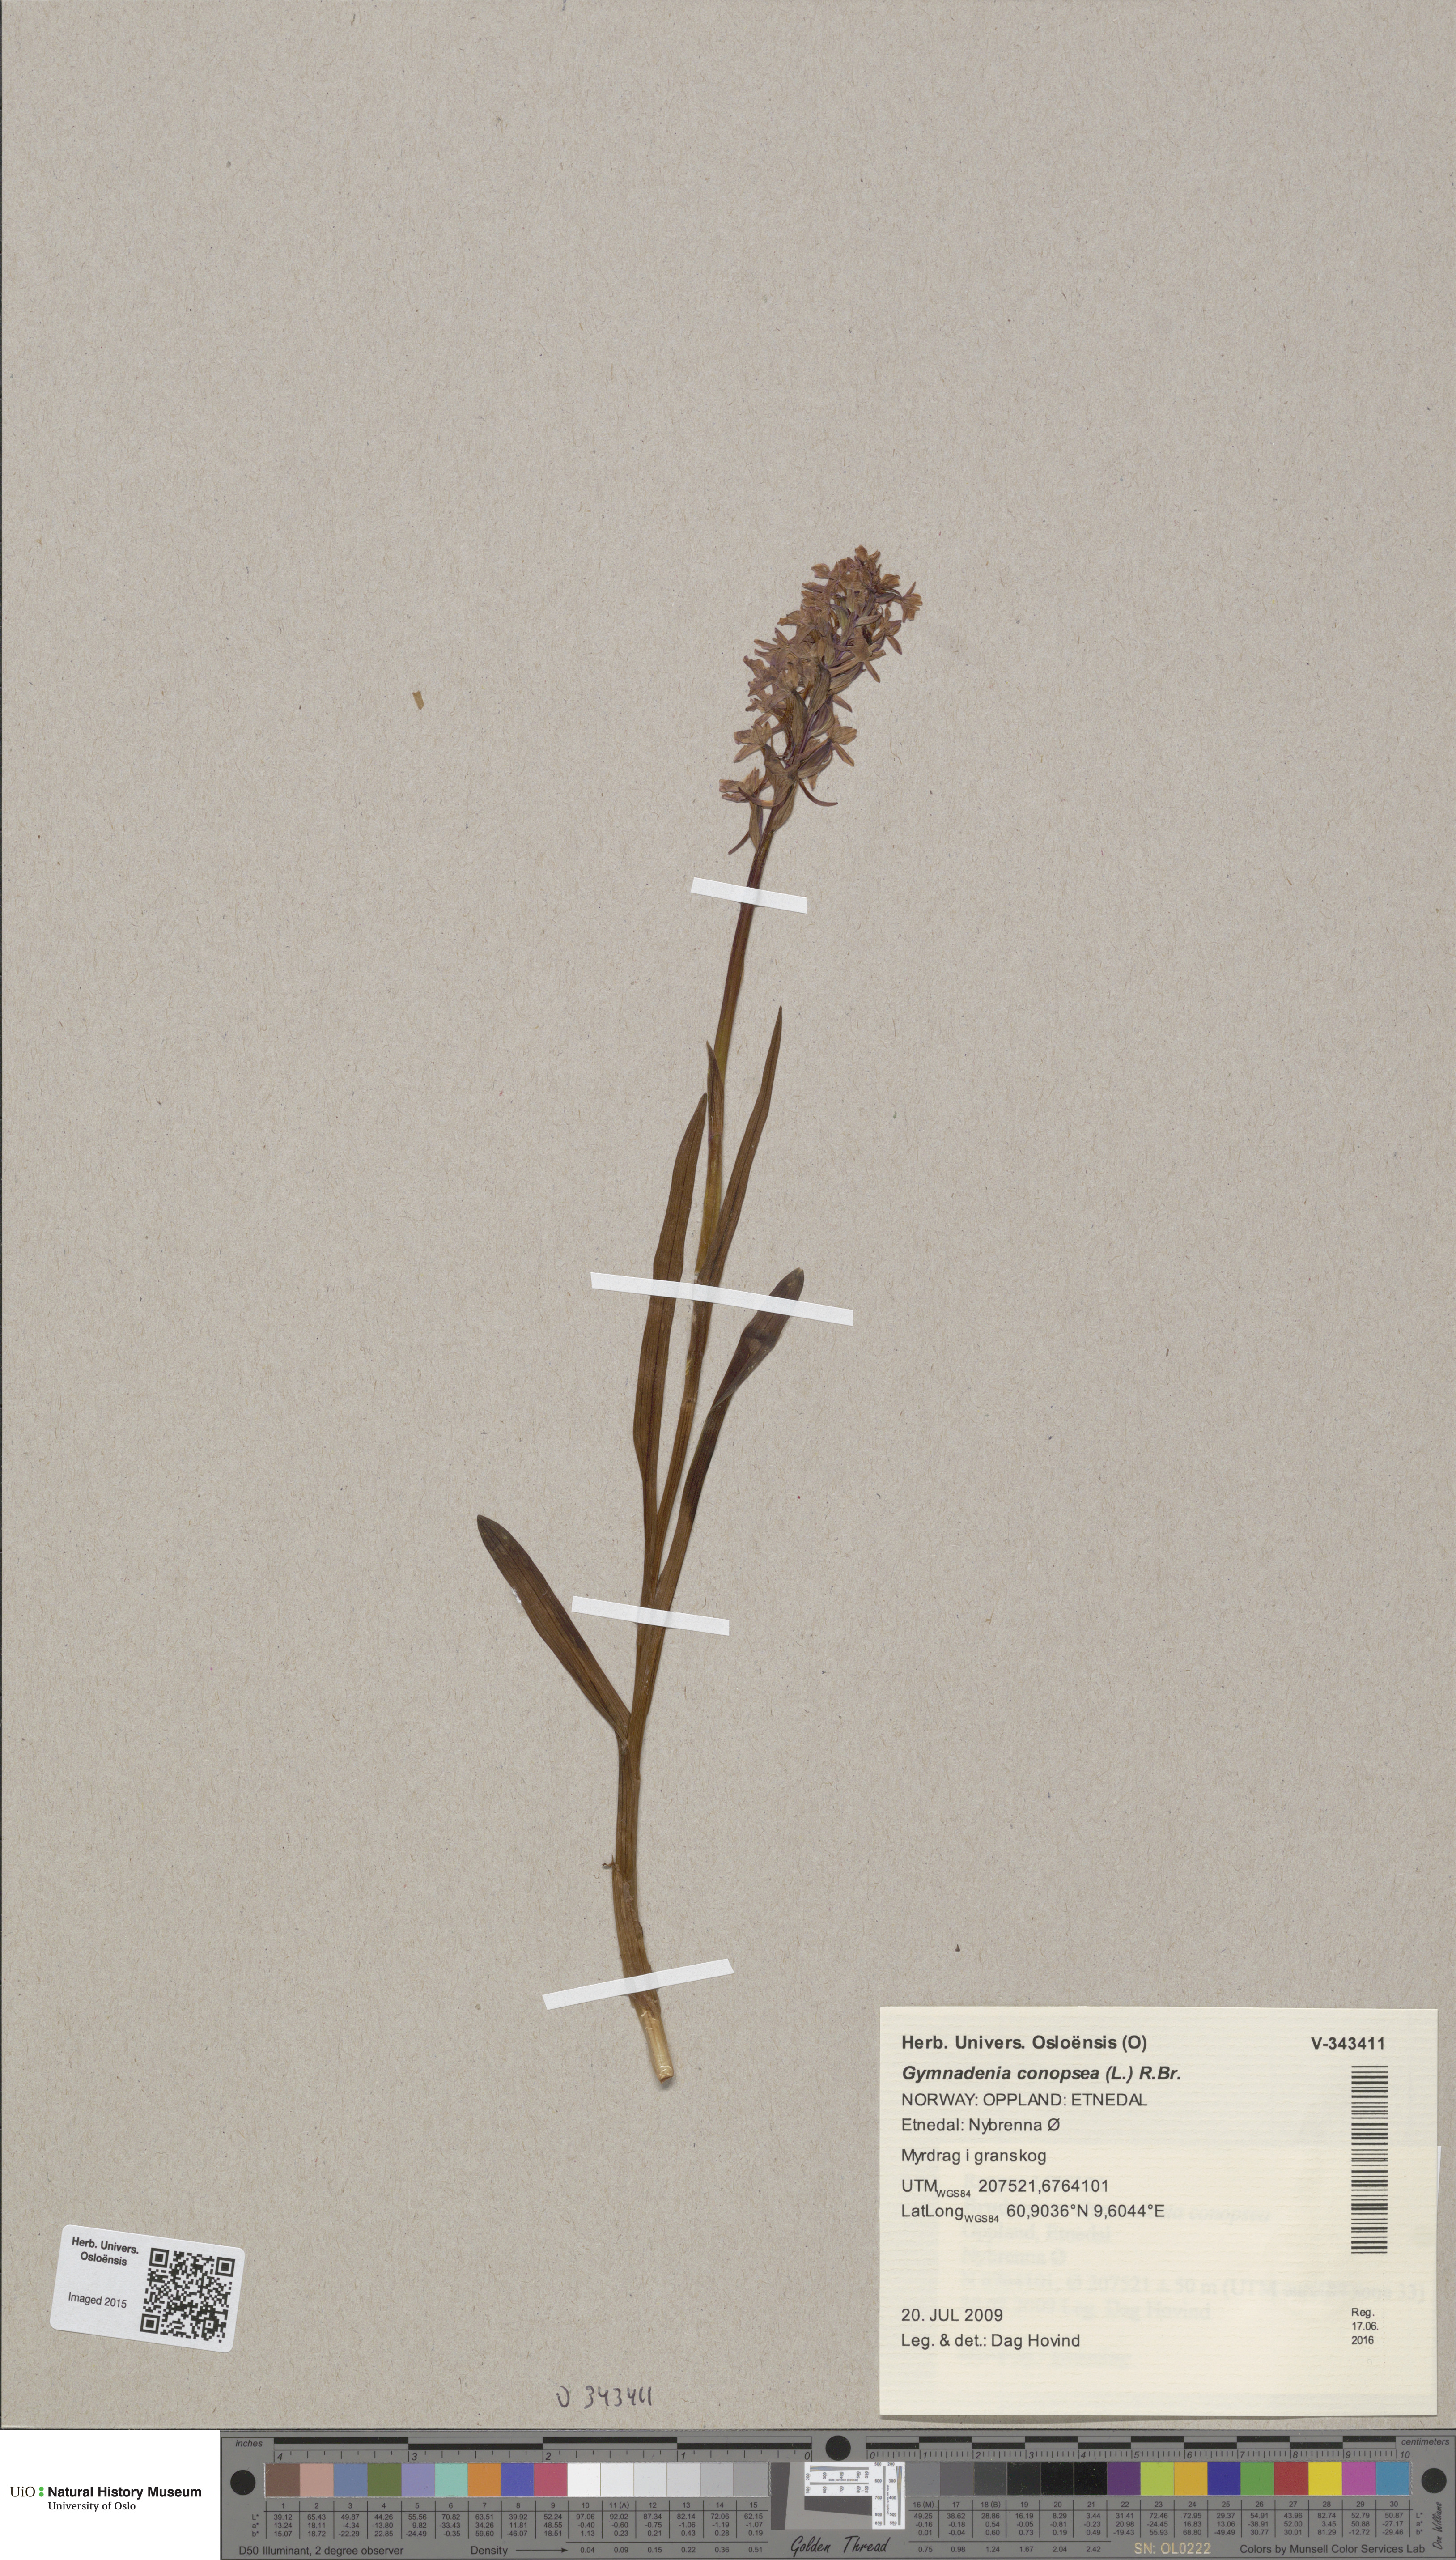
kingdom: Plantae
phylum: Tracheophyta
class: Liliopsida
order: Asparagales
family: Orchidaceae
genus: Gymnadenia
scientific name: Gymnadenia conopsea
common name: Fragrant orchid
